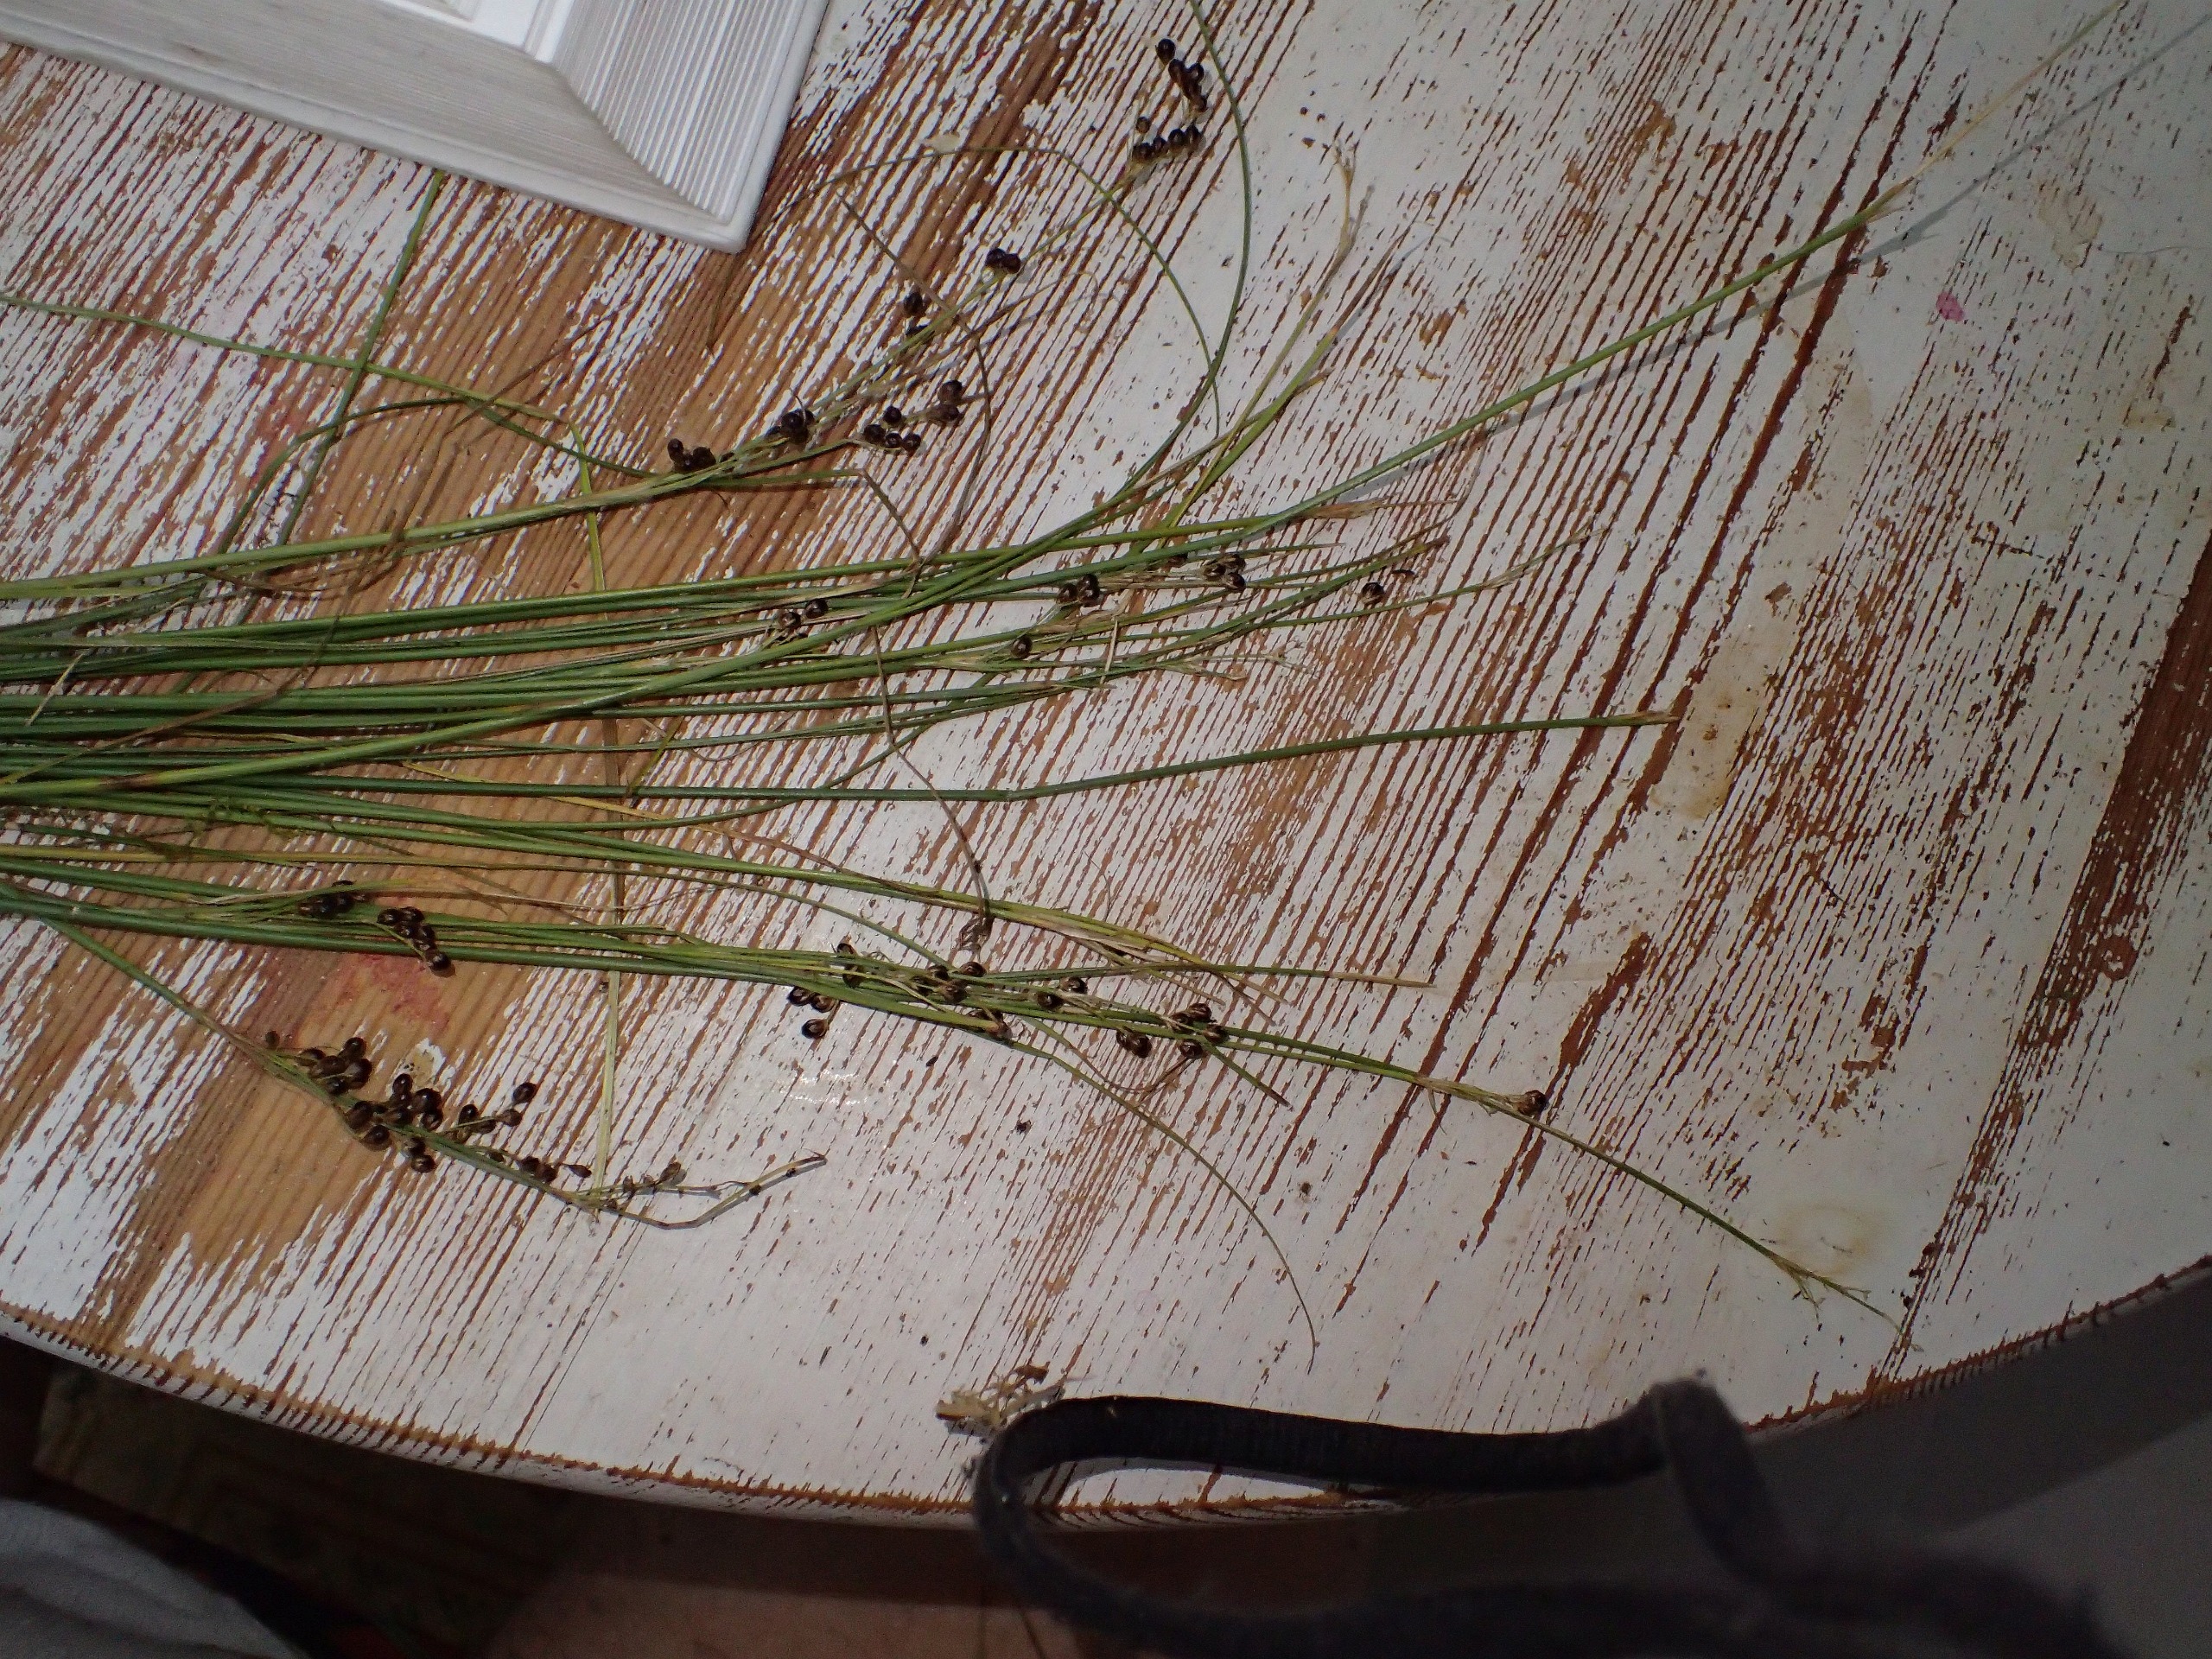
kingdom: Plantae
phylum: Tracheophyta
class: Liliopsida
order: Poales
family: Juncaceae
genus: Juncus
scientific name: Juncus compressus
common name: Fladstrået siv
